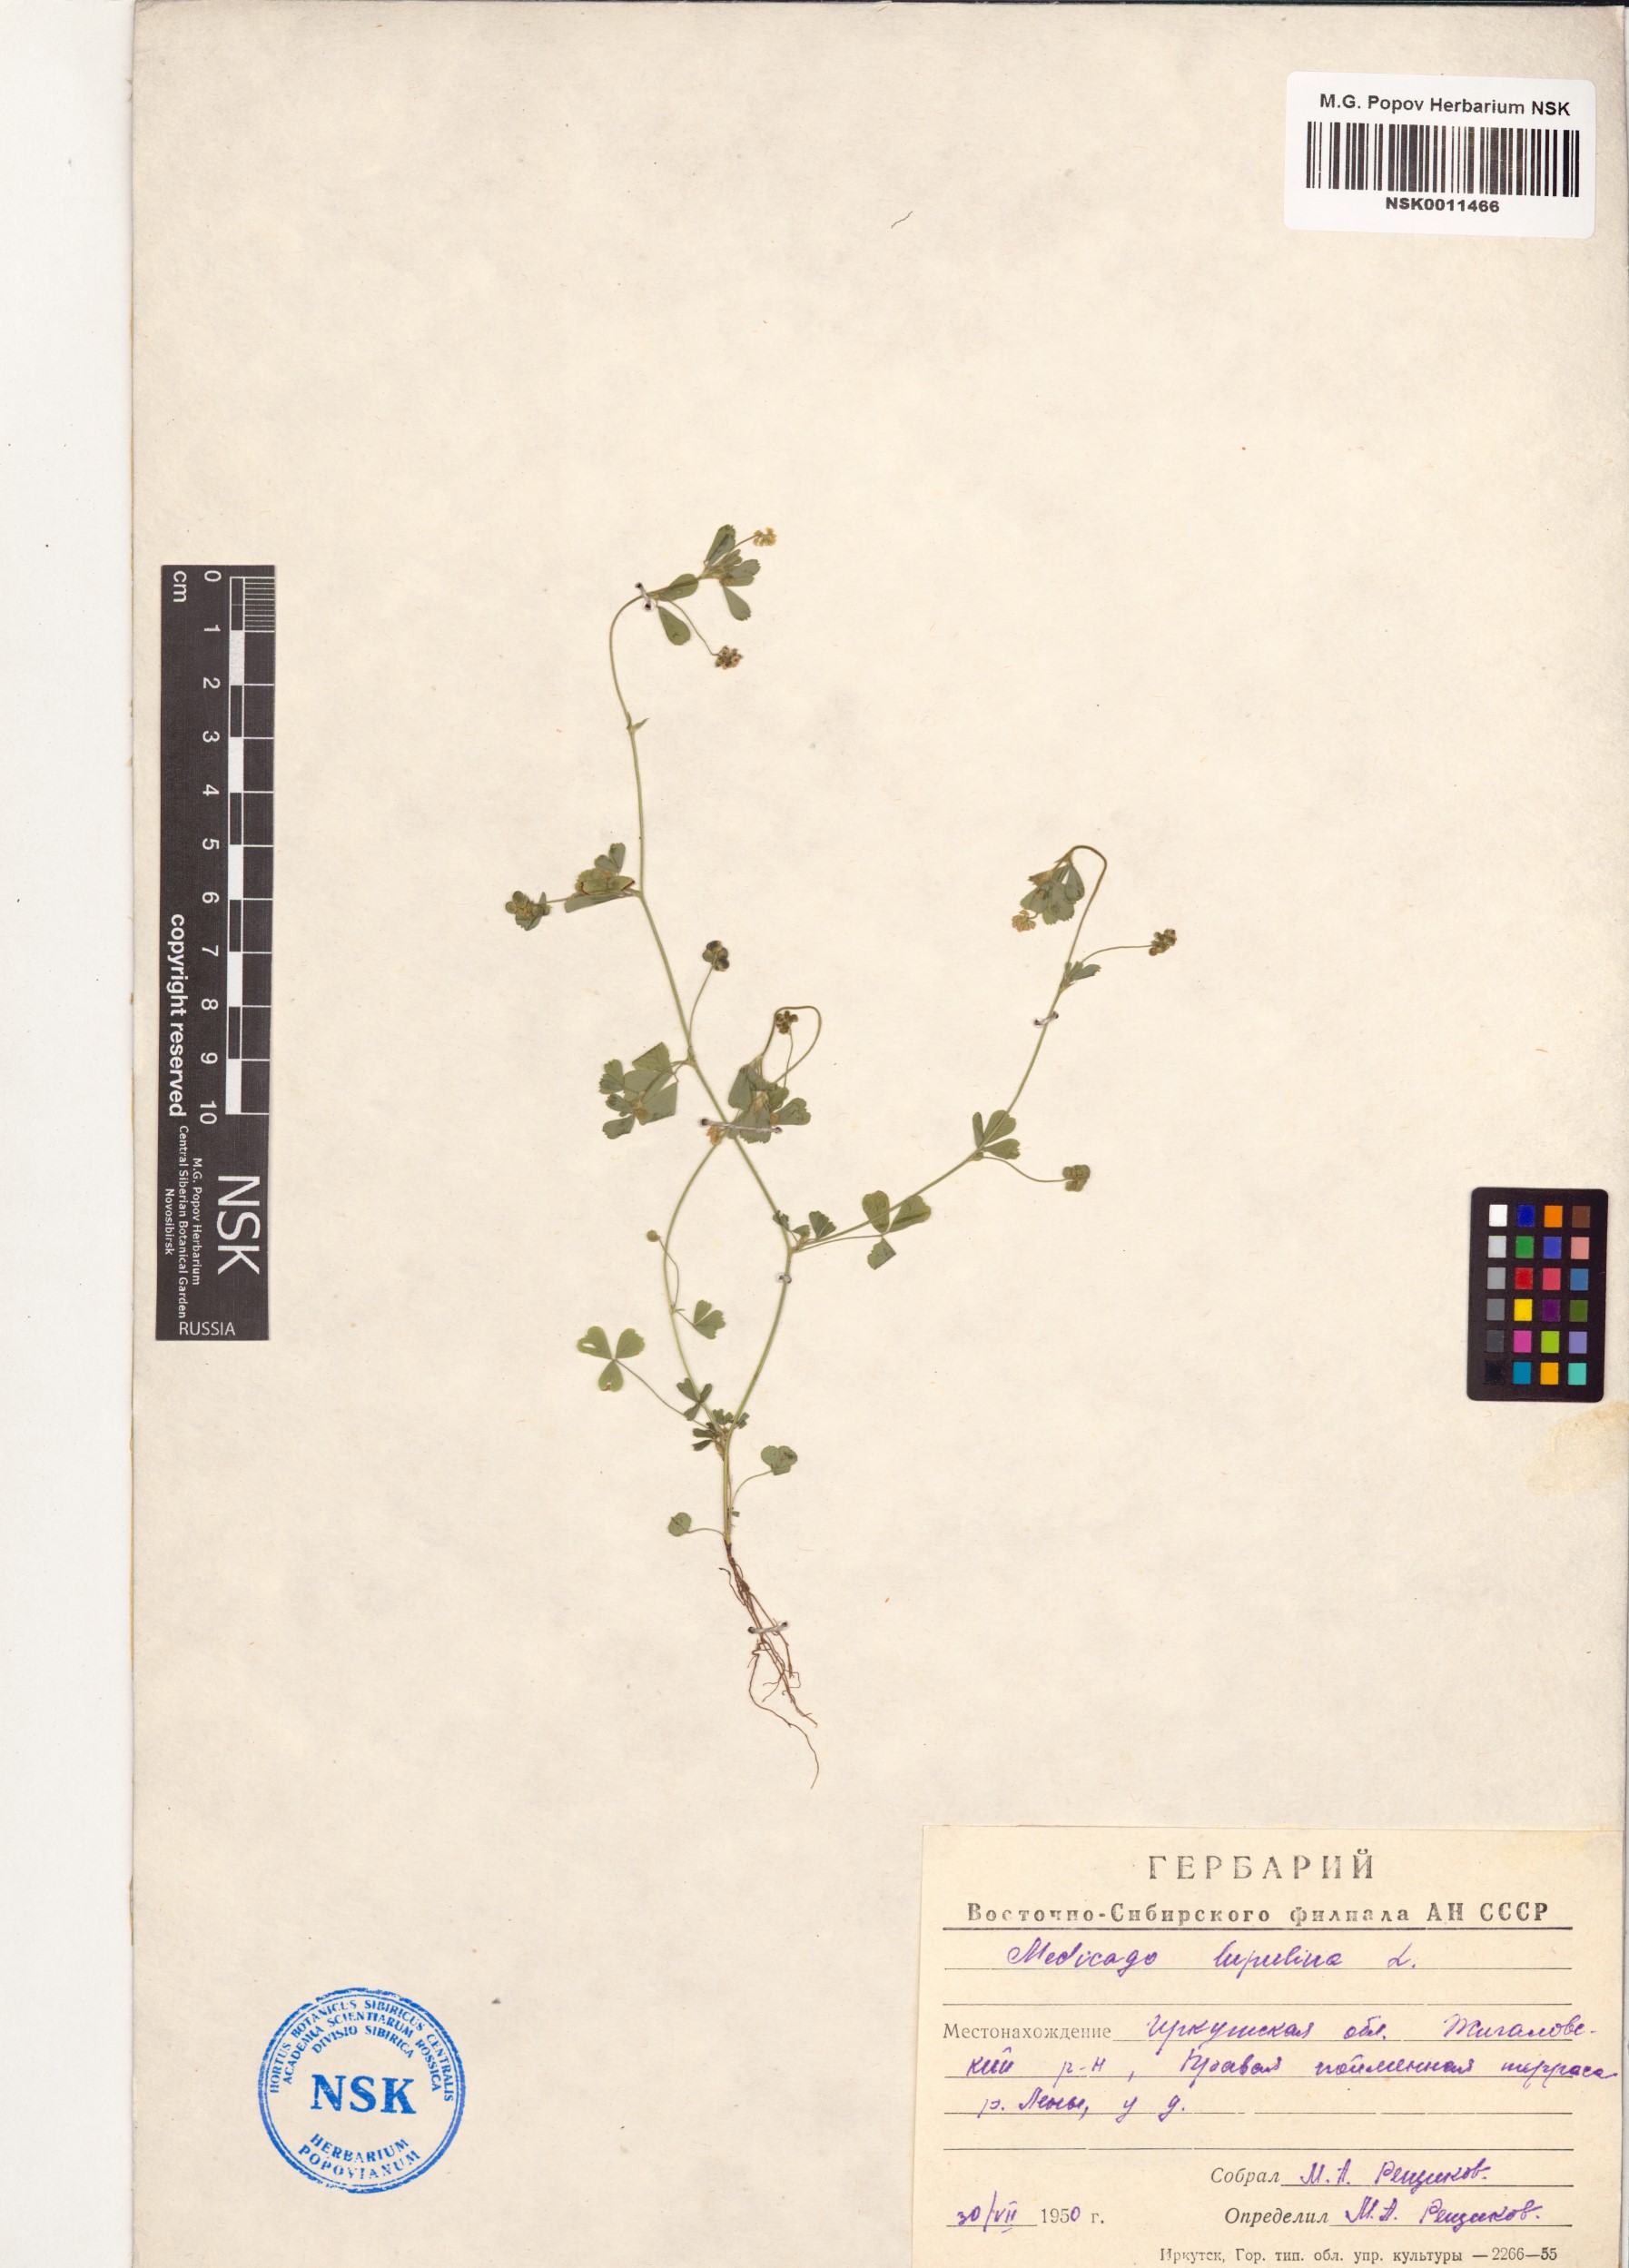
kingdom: Plantae
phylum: Tracheophyta
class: Magnoliopsida
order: Fabales
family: Fabaceae
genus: Medicago
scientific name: Medicago lupulina
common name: Black medick
